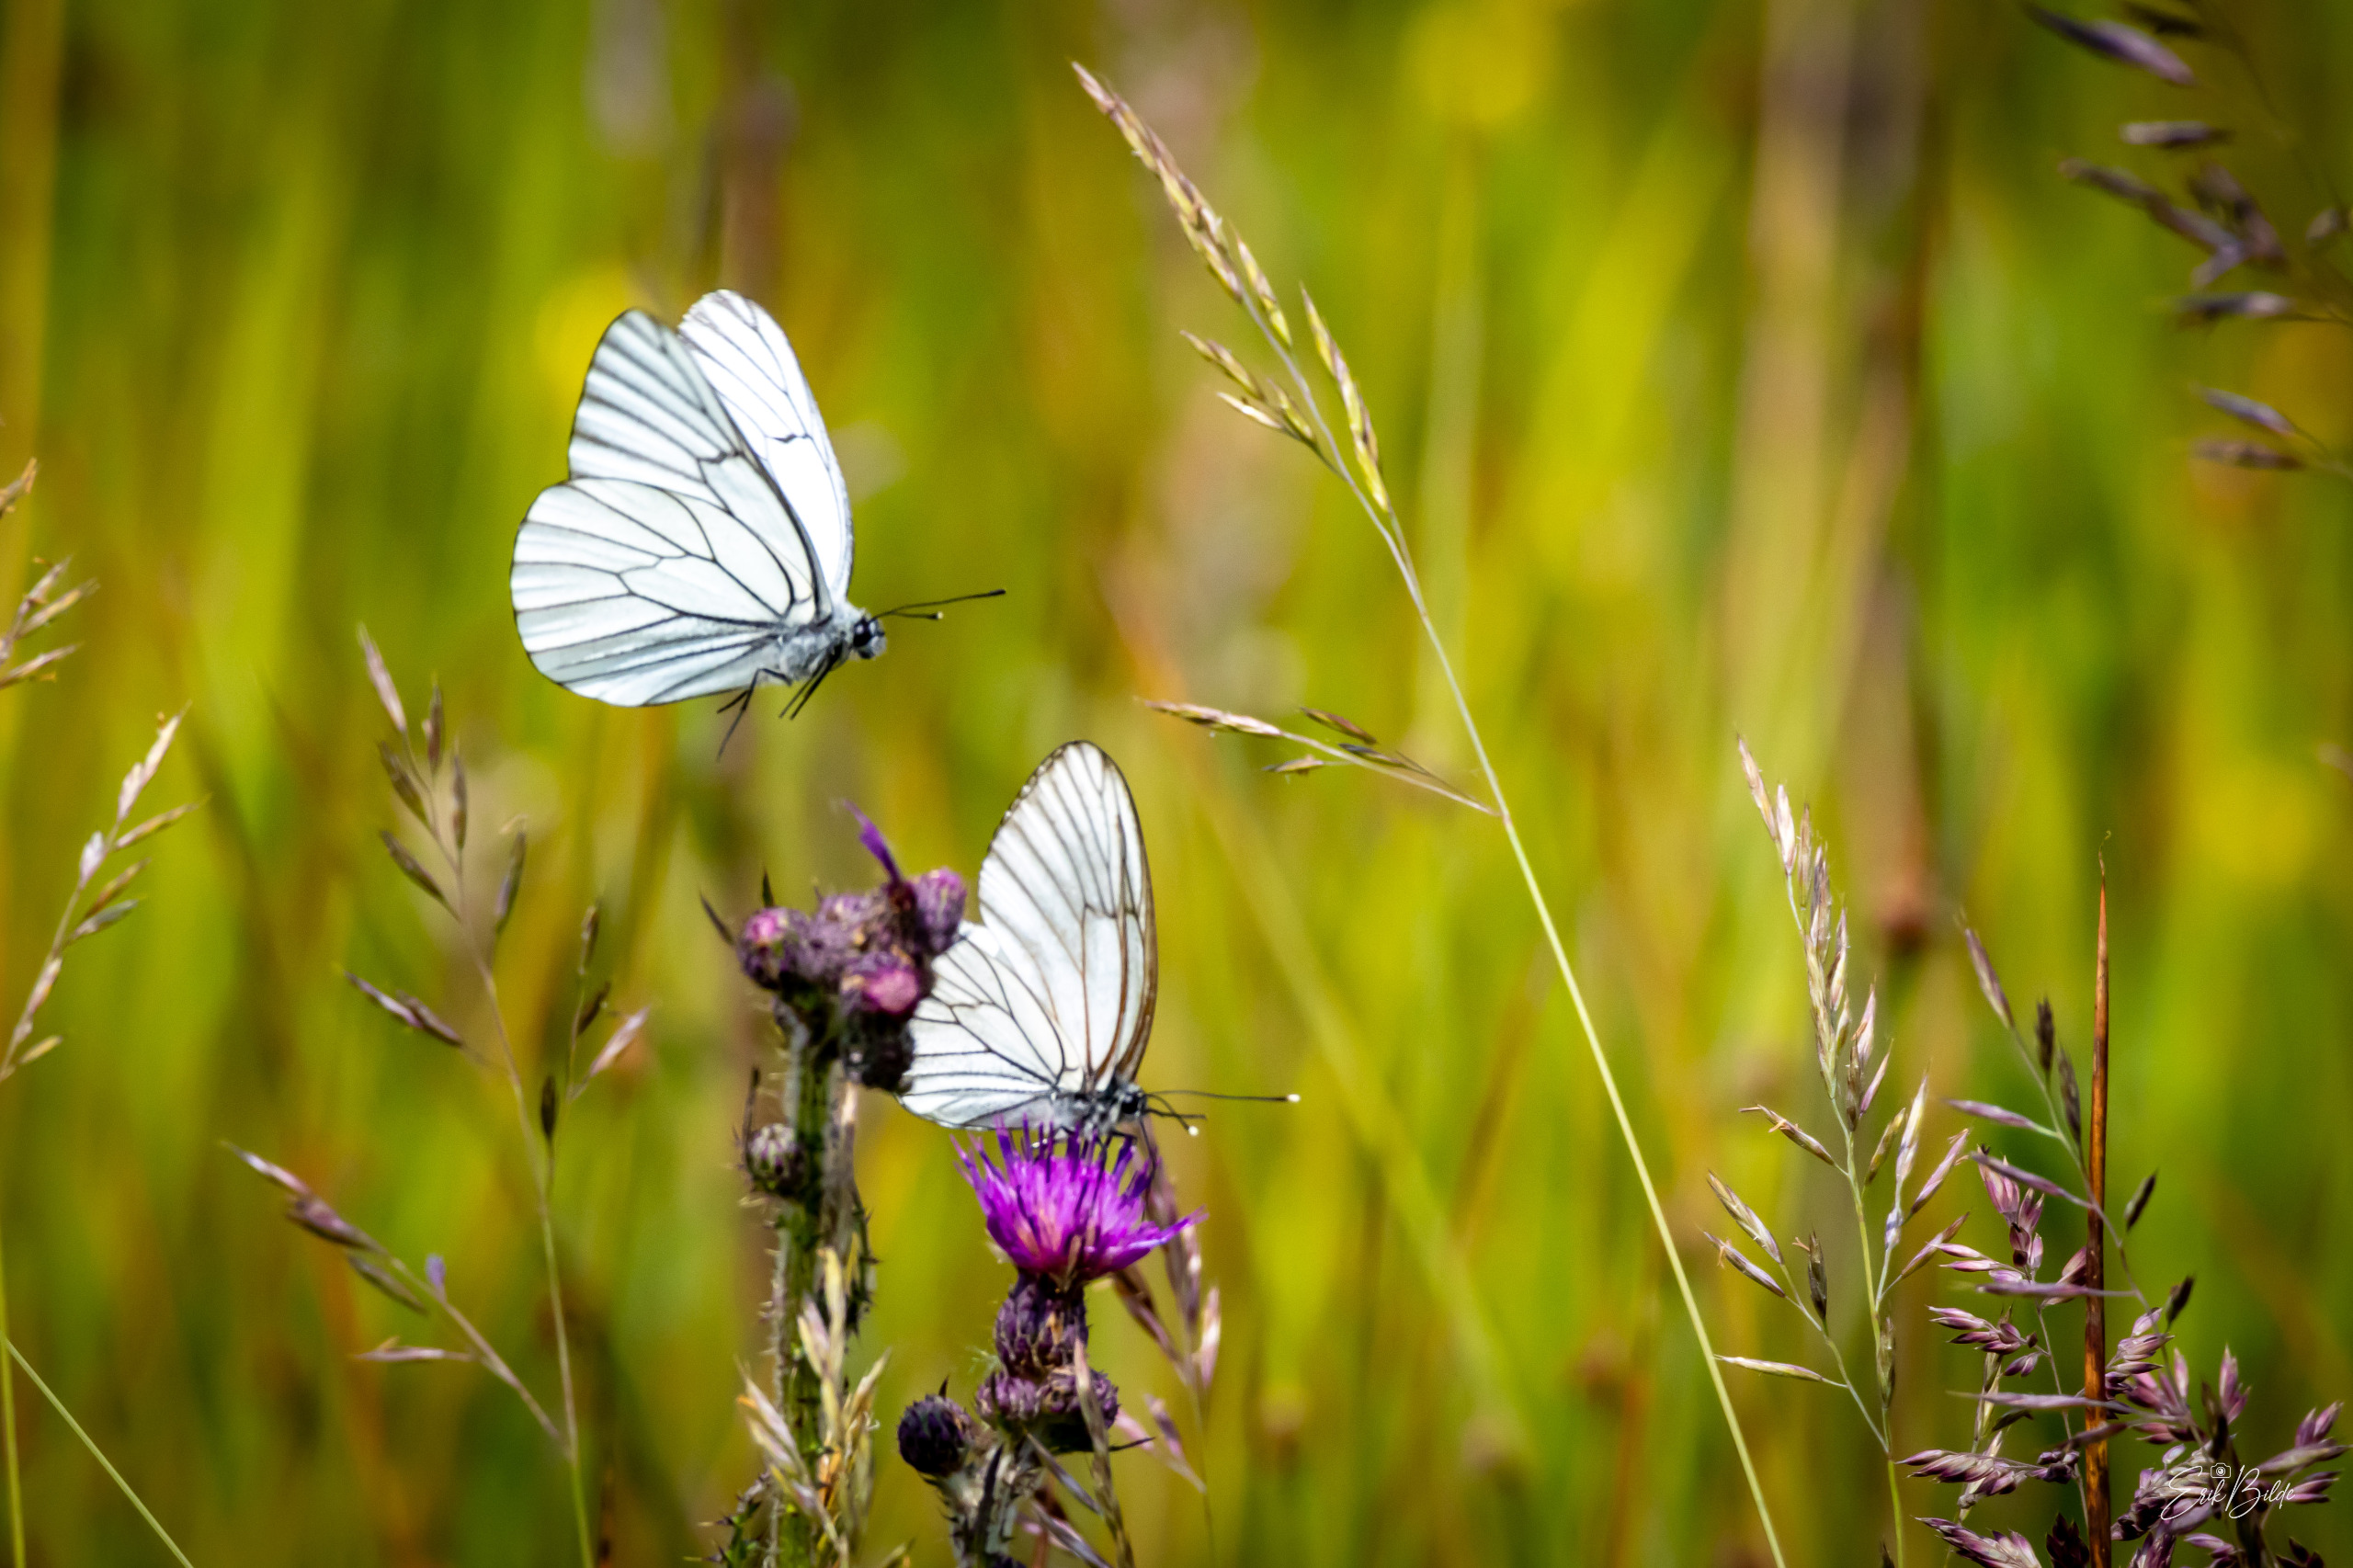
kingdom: Animalia
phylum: Arthropoda
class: Insecta
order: Lepidoptera
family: Pieridae
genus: Aporia
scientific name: Aporia crataegi
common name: Sortåret hvidvinge
